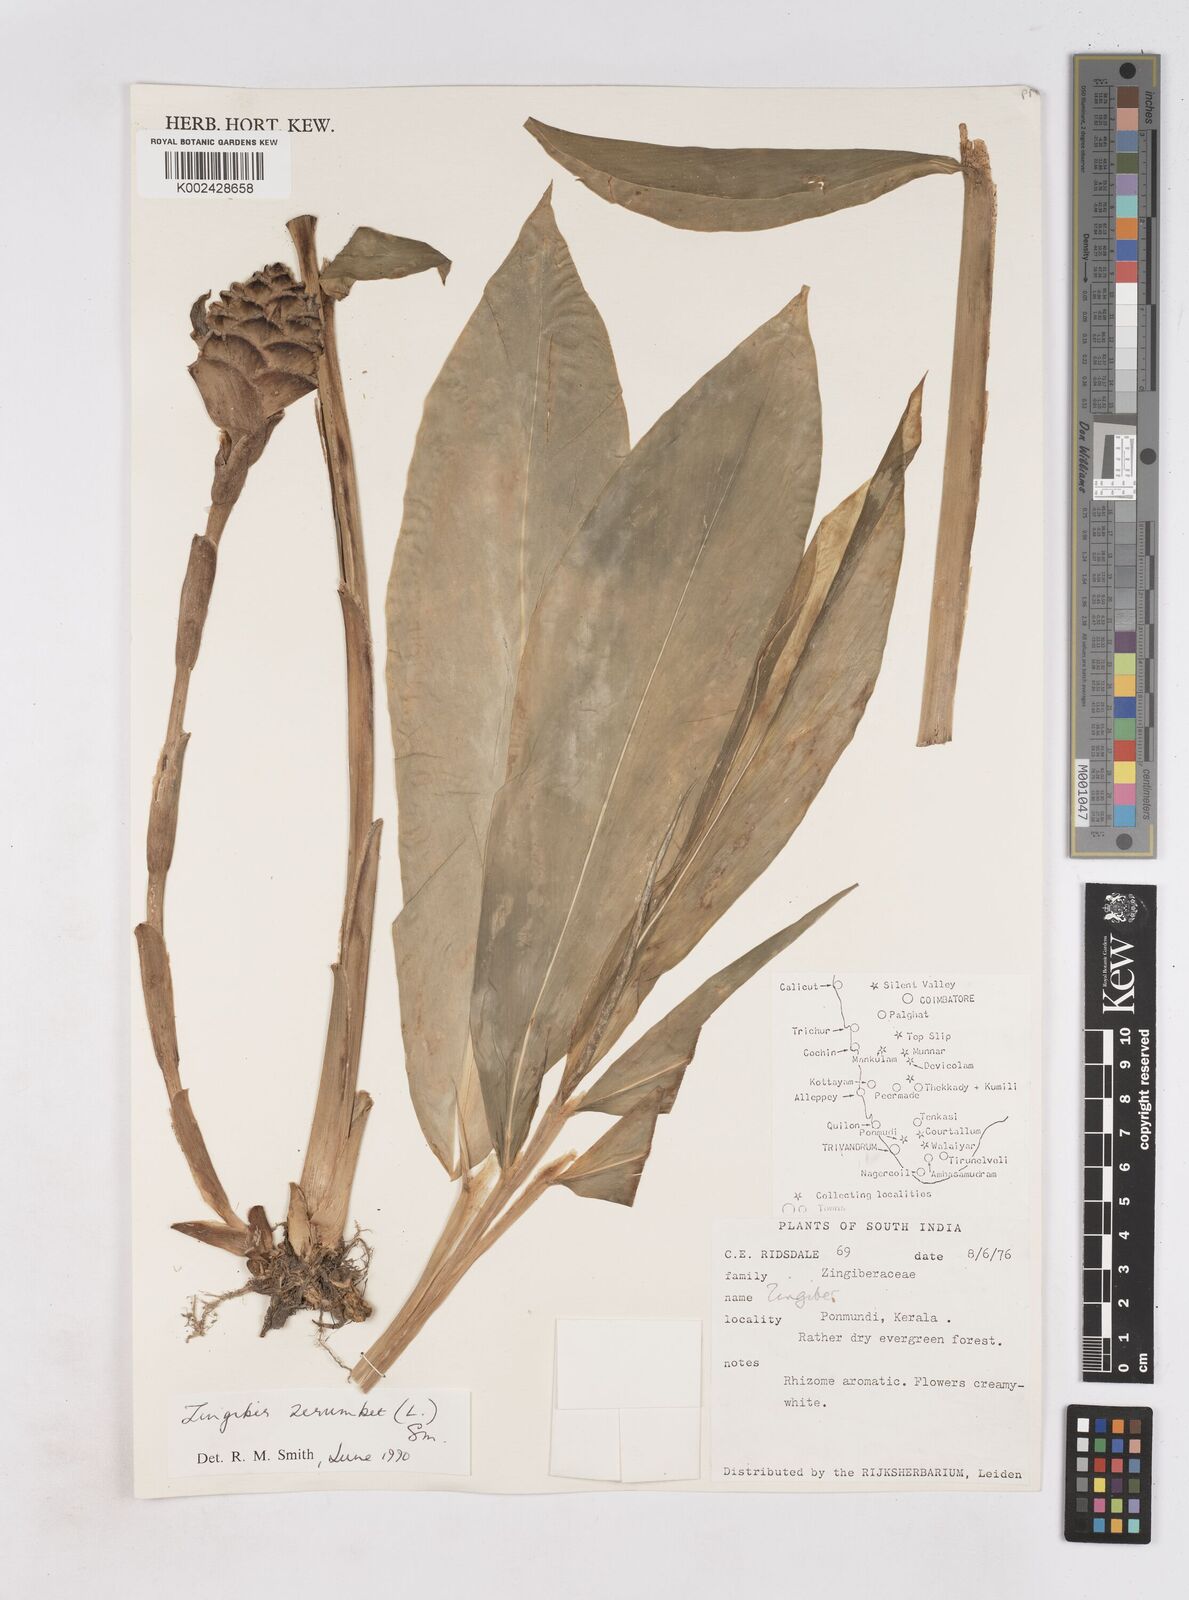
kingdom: Plantae
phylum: Tracheophyta
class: Liliopsida
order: Zingiberales
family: Zingiberaceae
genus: Zingiber
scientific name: Zingiber zerumbet
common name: Bitter ginger
